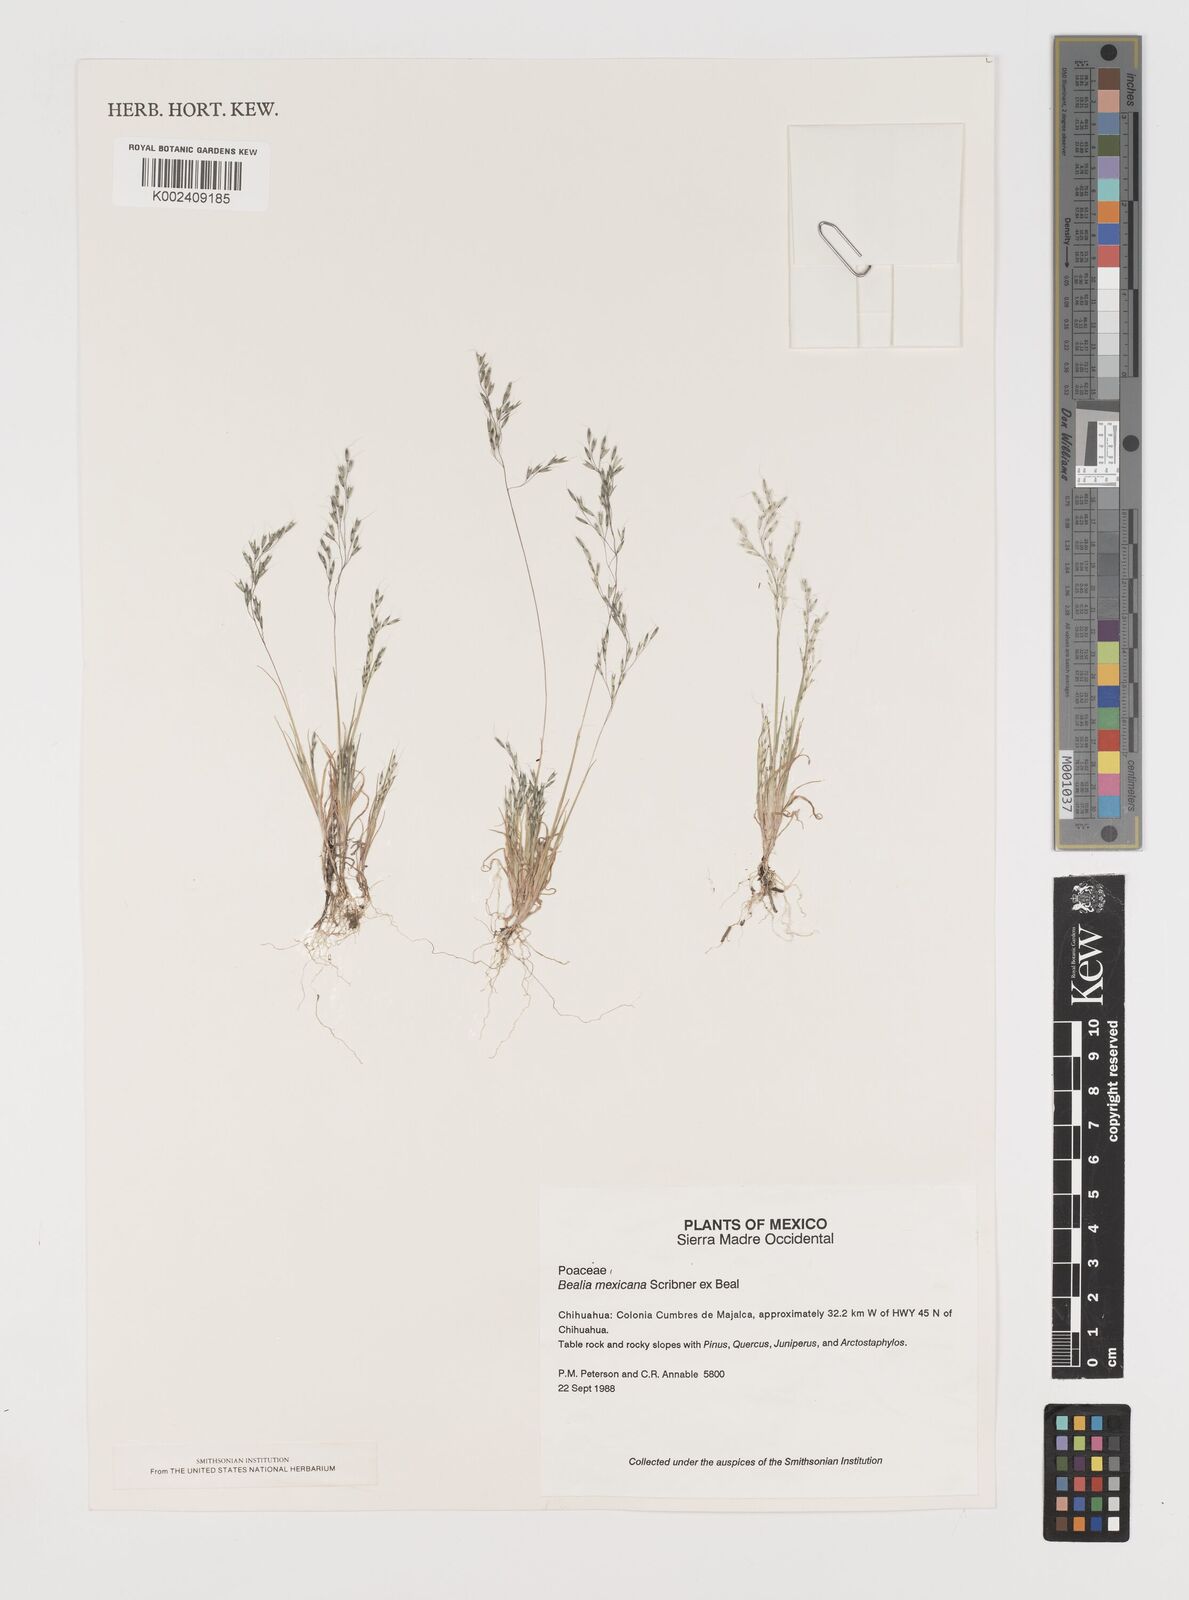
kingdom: Plantae
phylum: Tracheophyta
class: Liliopsida
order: Poales
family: Poaceae
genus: Muhlenbergia
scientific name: Muhlenbergia biloba
